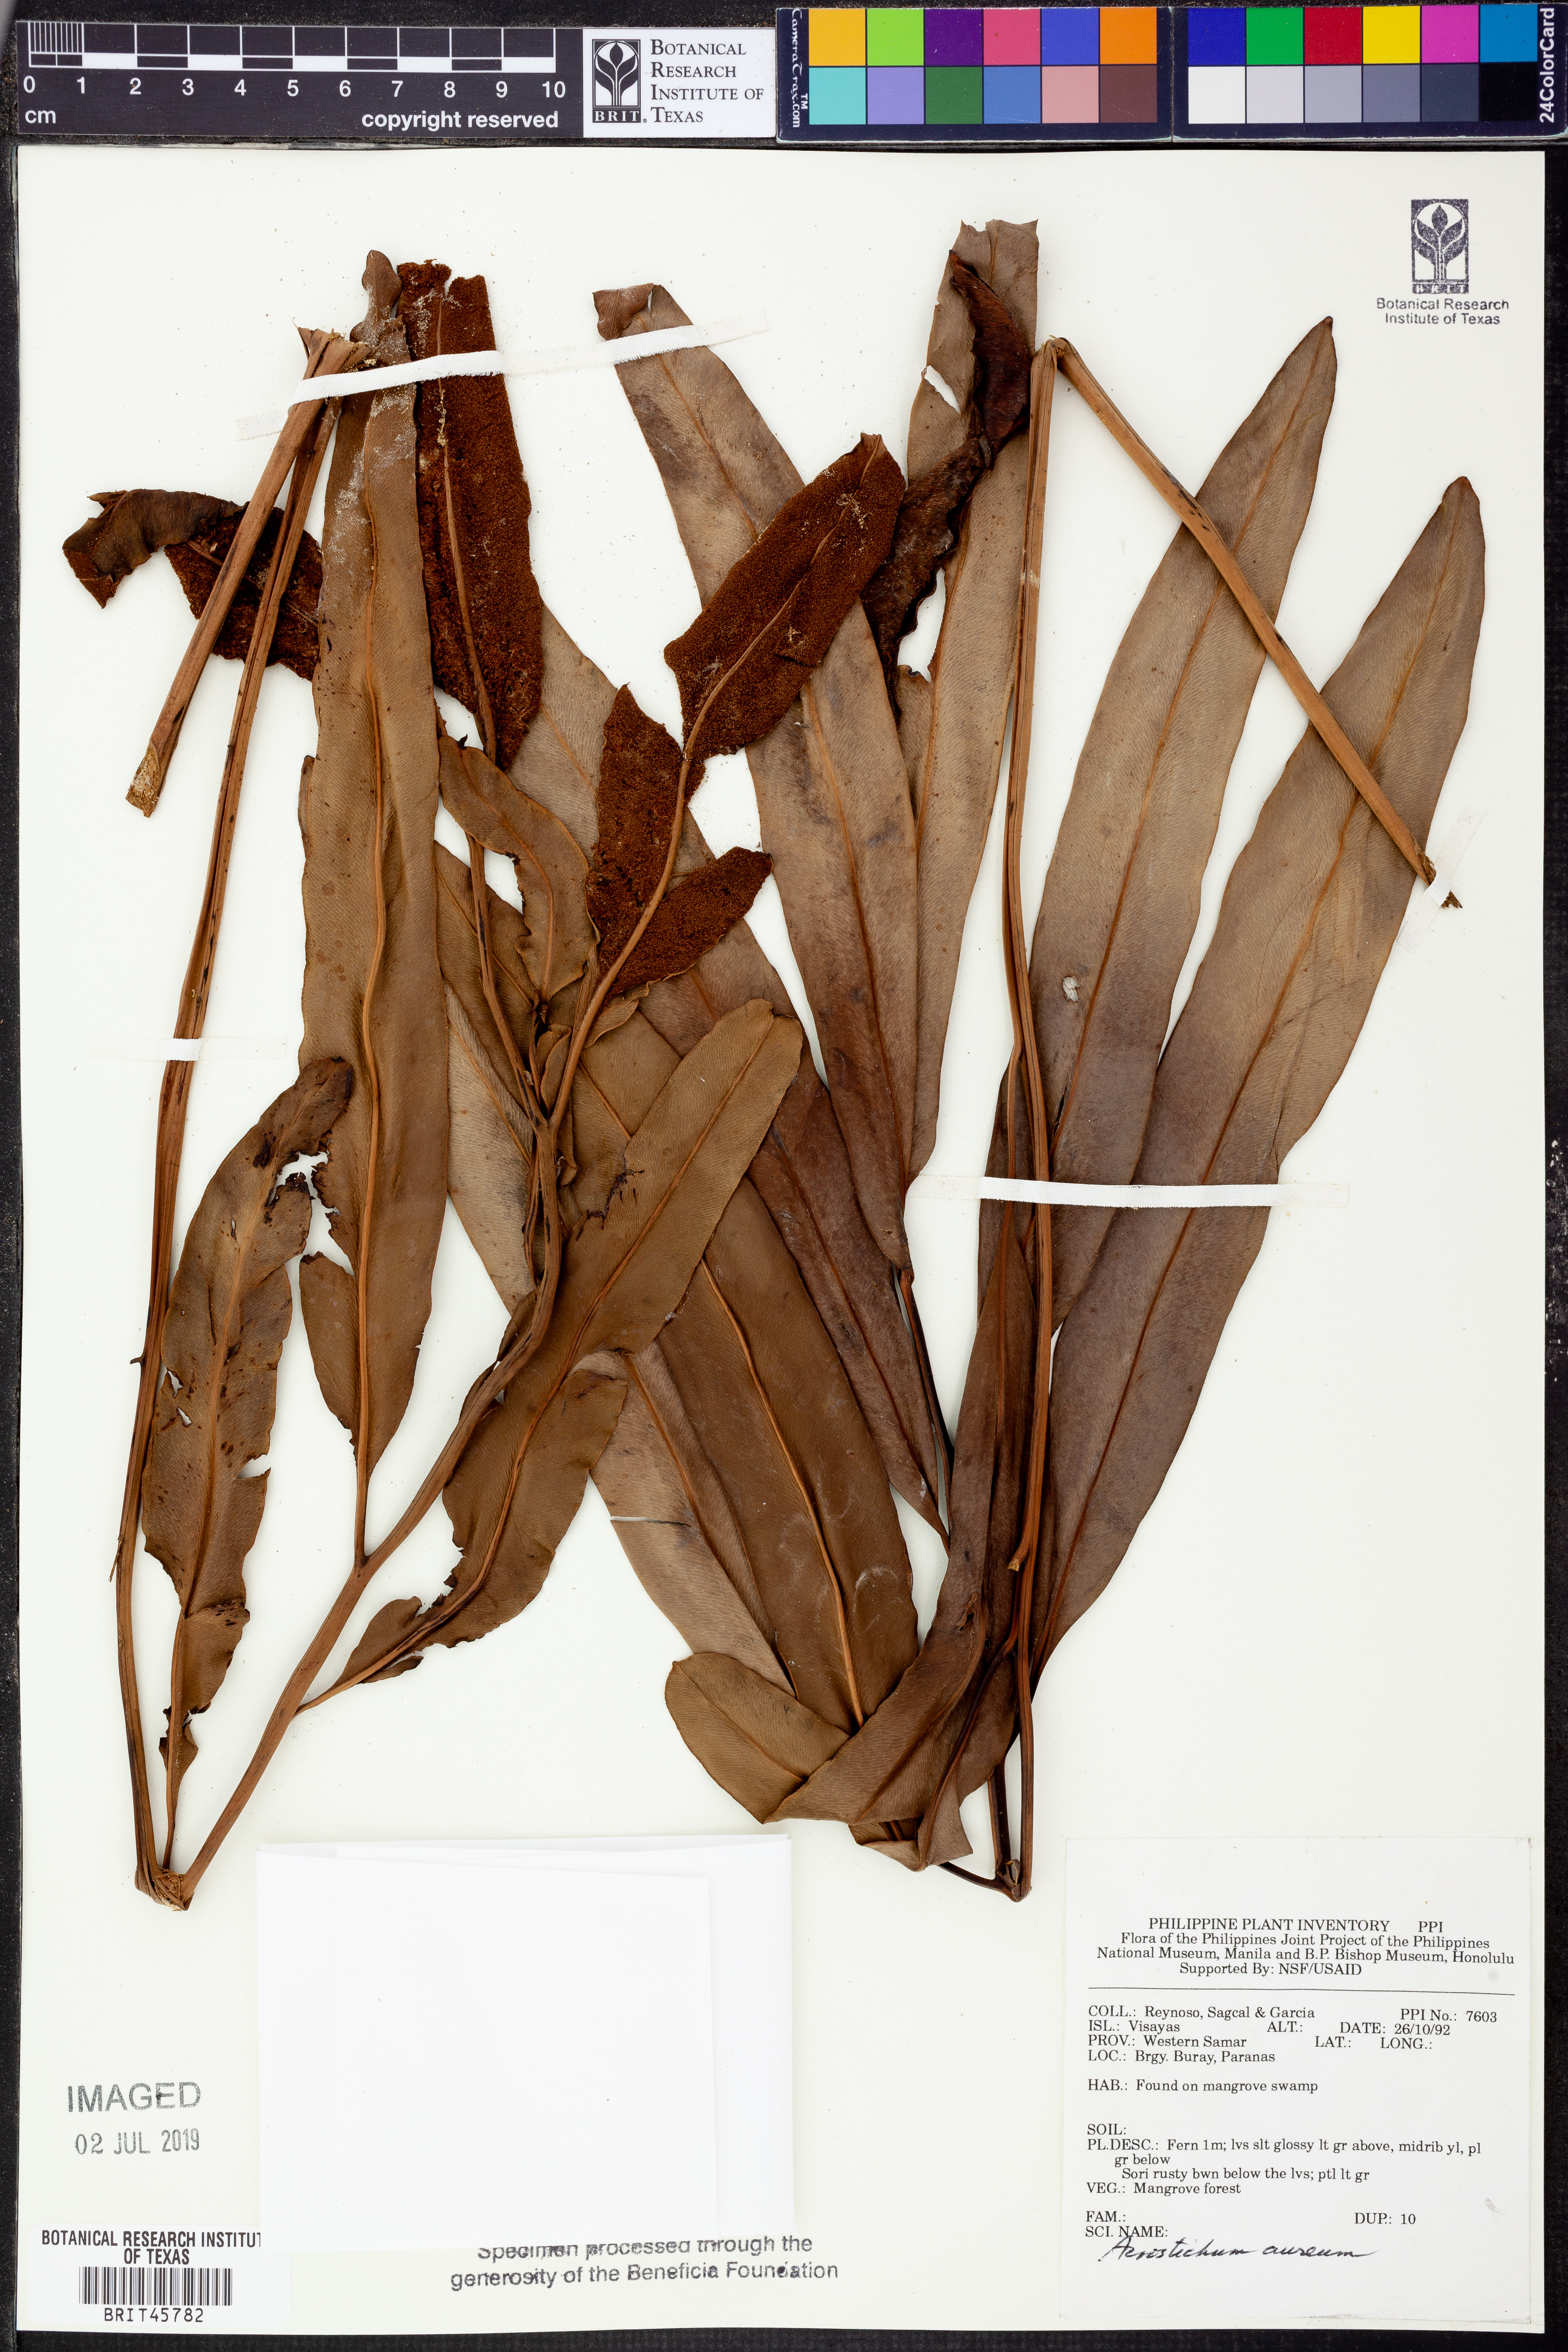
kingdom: Plantae
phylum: Tracheophyta
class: Polypodiopsida
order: Polypodiales
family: Pteridaceae
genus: Acrostichum
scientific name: Acrostichum aureum
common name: Leather fern
